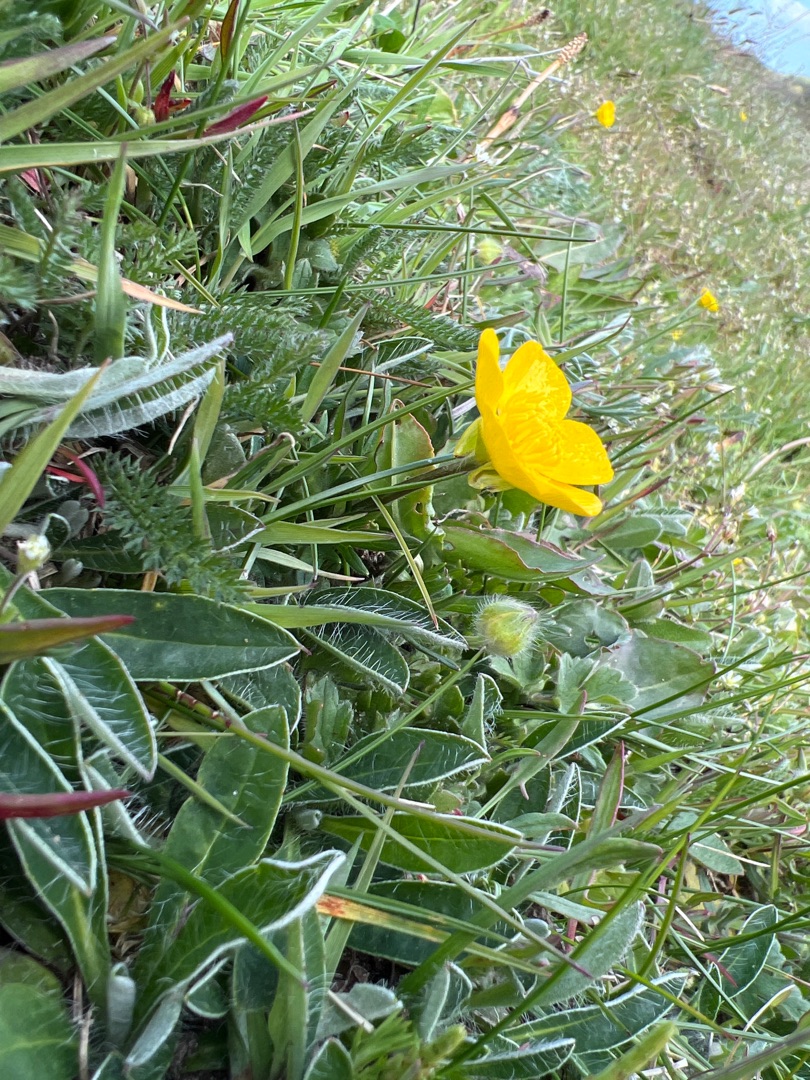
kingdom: Plantae
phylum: Tracheophyta
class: Magnoliopsida
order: Ranunculales
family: Ranunculaceae
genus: Ranunculus
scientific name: Ranunculus bulbosus
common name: Knold-ranunkel
